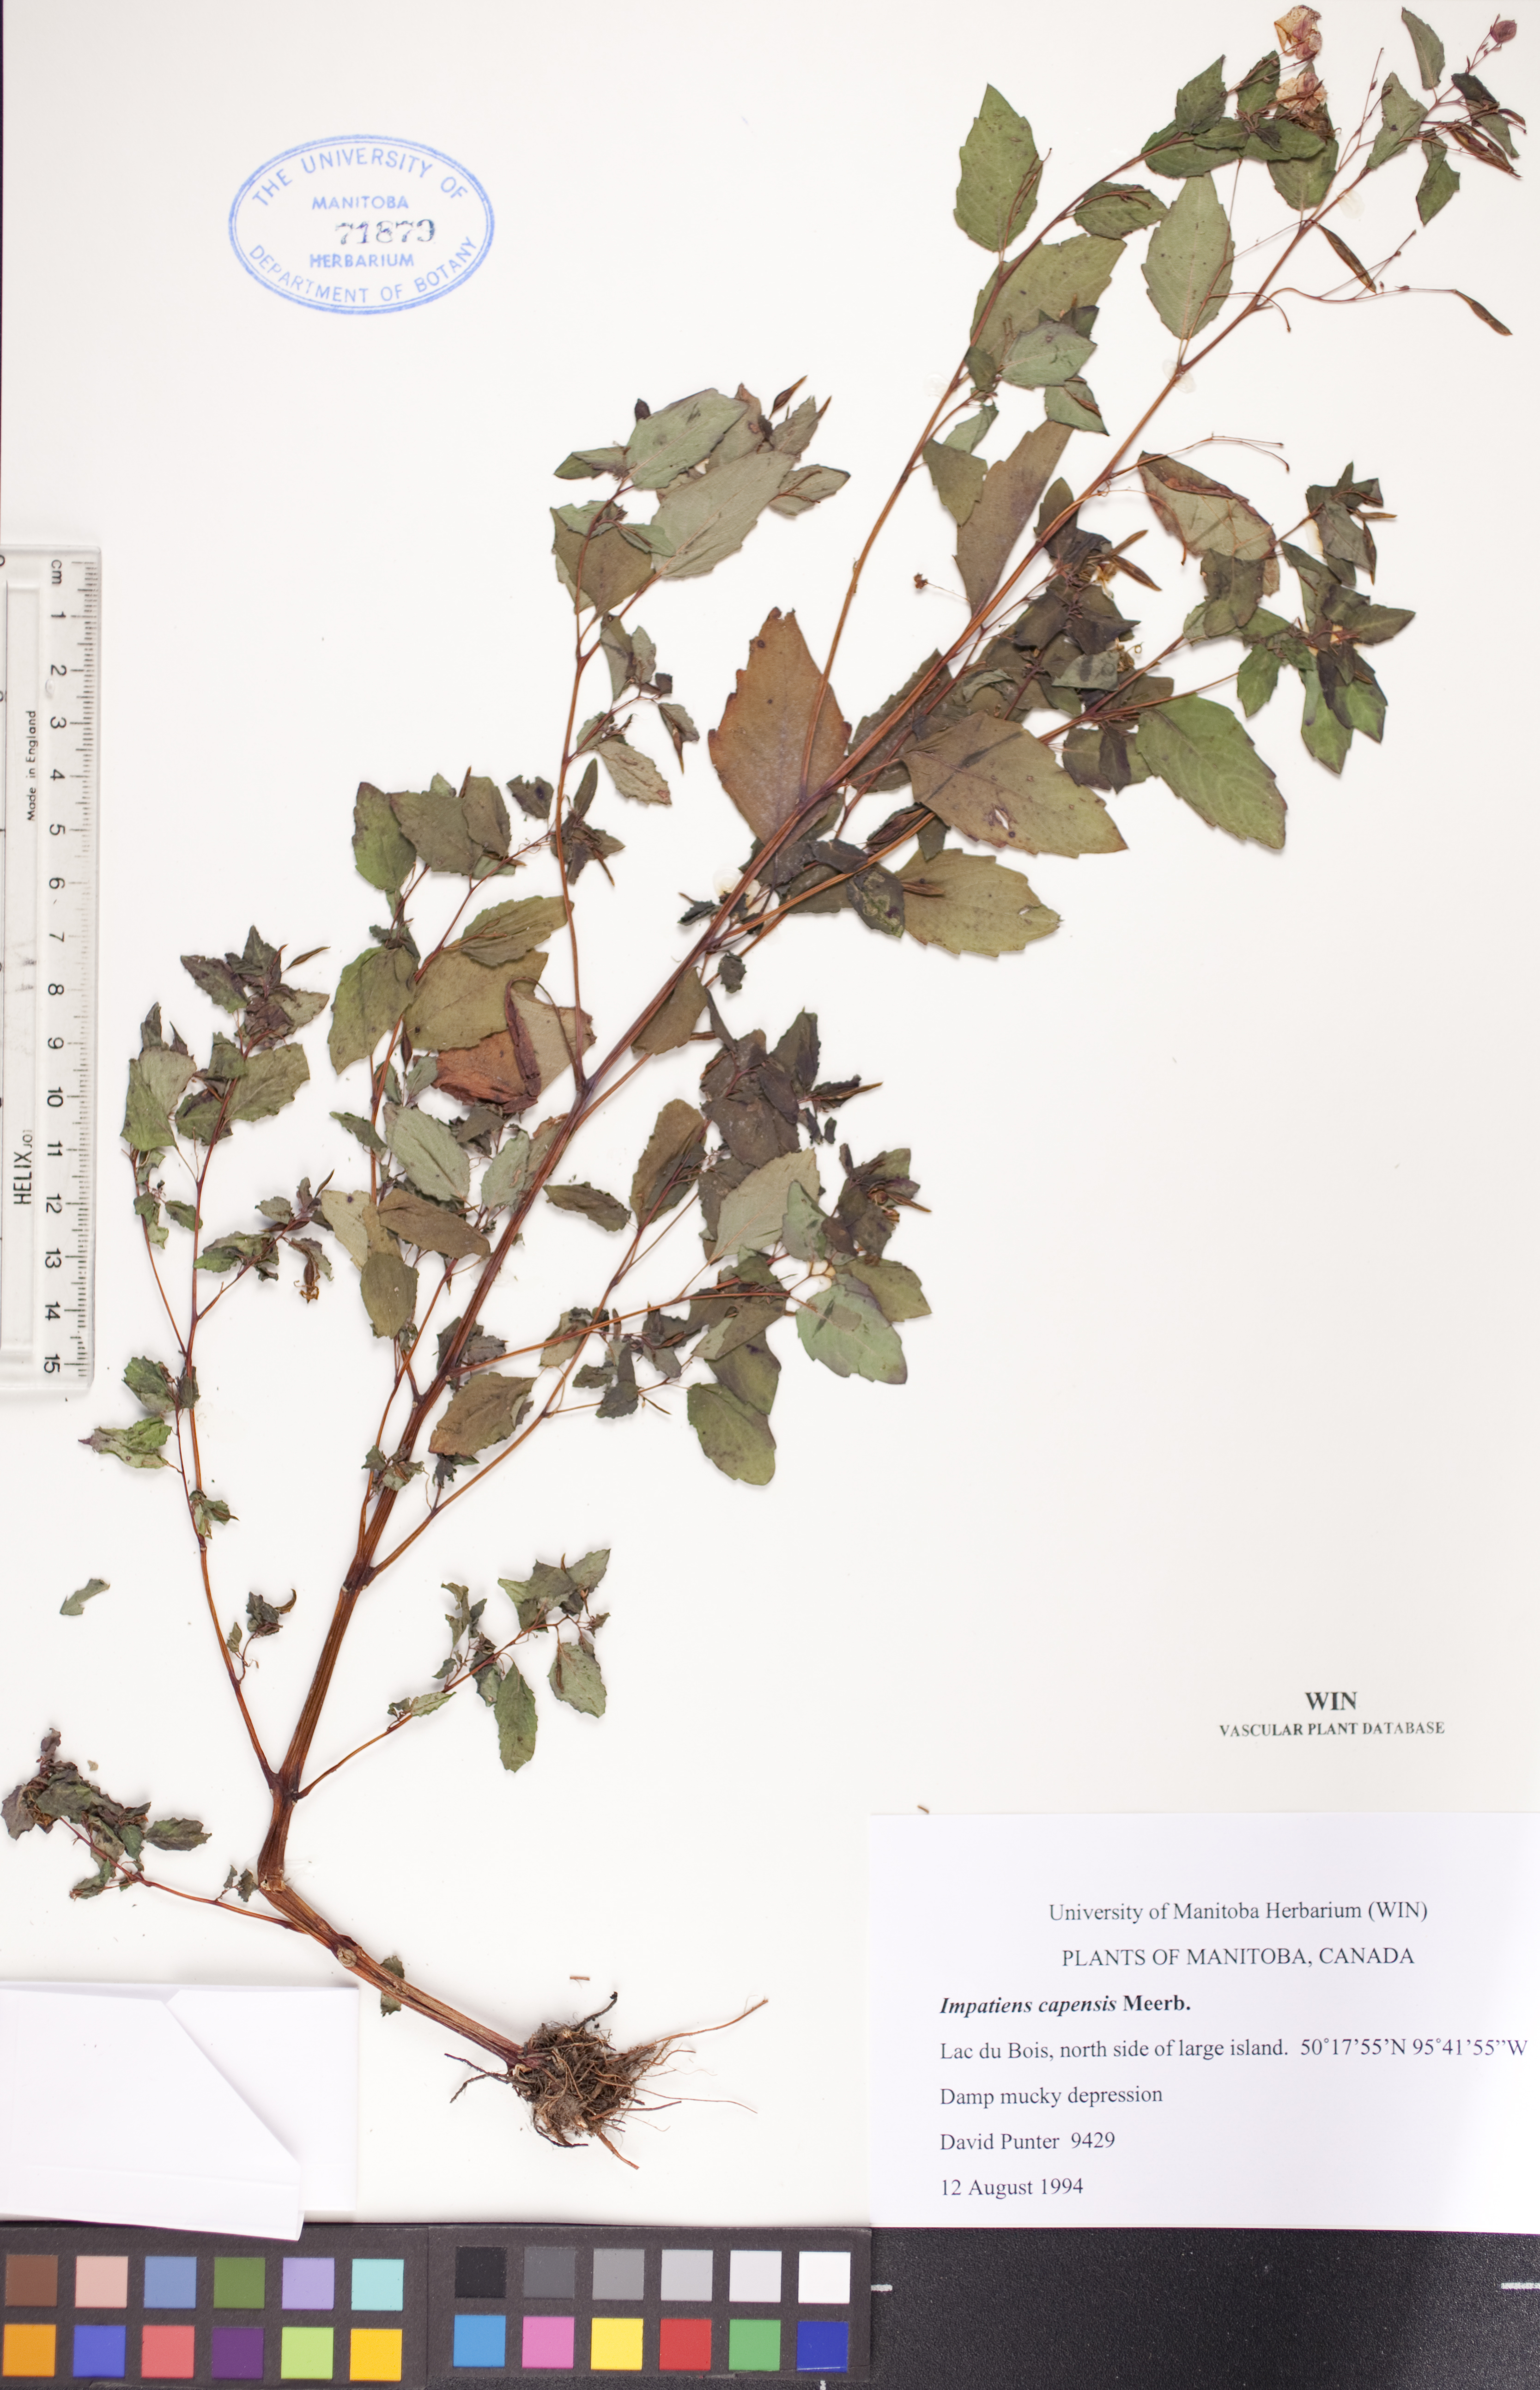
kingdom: Plantae
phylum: Tracheophyta
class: Magnoliopsida
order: Ericales
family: Balsaminaceae
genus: Impatiens
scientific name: Impatiens capensis
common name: Orange balsam
